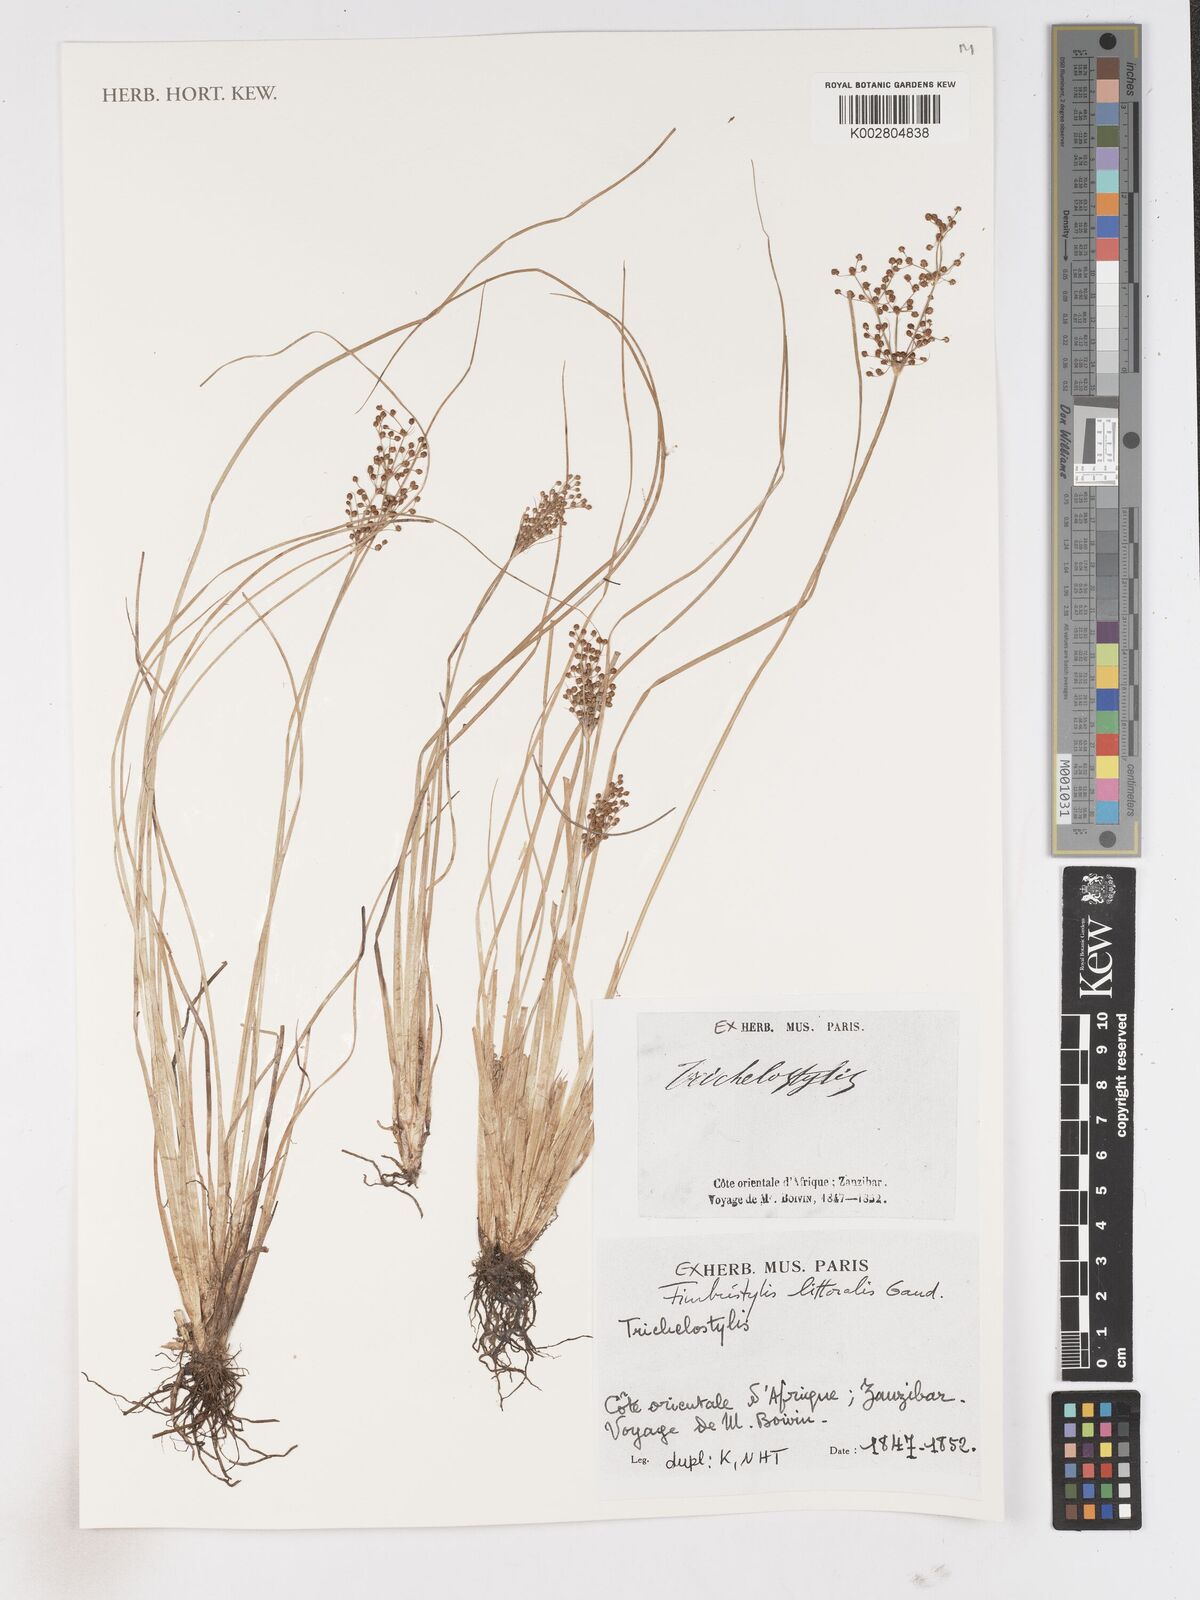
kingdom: Plantae
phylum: Tracheophyta
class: Liliopsida
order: Poales
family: Cyperaceae
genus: Fimbristylis
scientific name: Fimbristylis littoralis
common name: Fimbry
